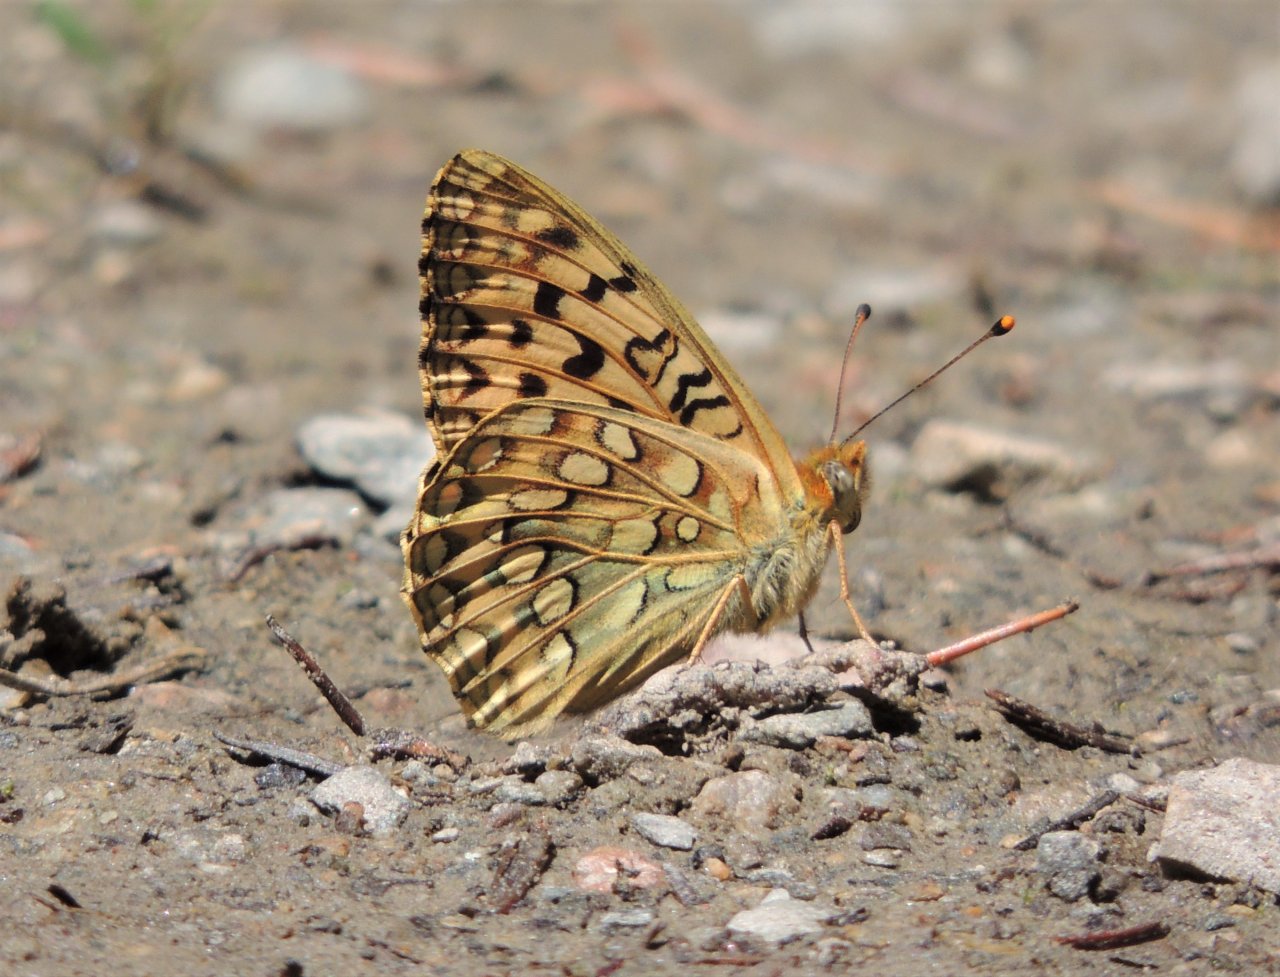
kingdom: Animalia
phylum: Arthropoda
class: Insecta
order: Lepidoptera
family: Nymphalidae
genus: Speyeria
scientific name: Speyeria egleis
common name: Great Basin Fritillary
